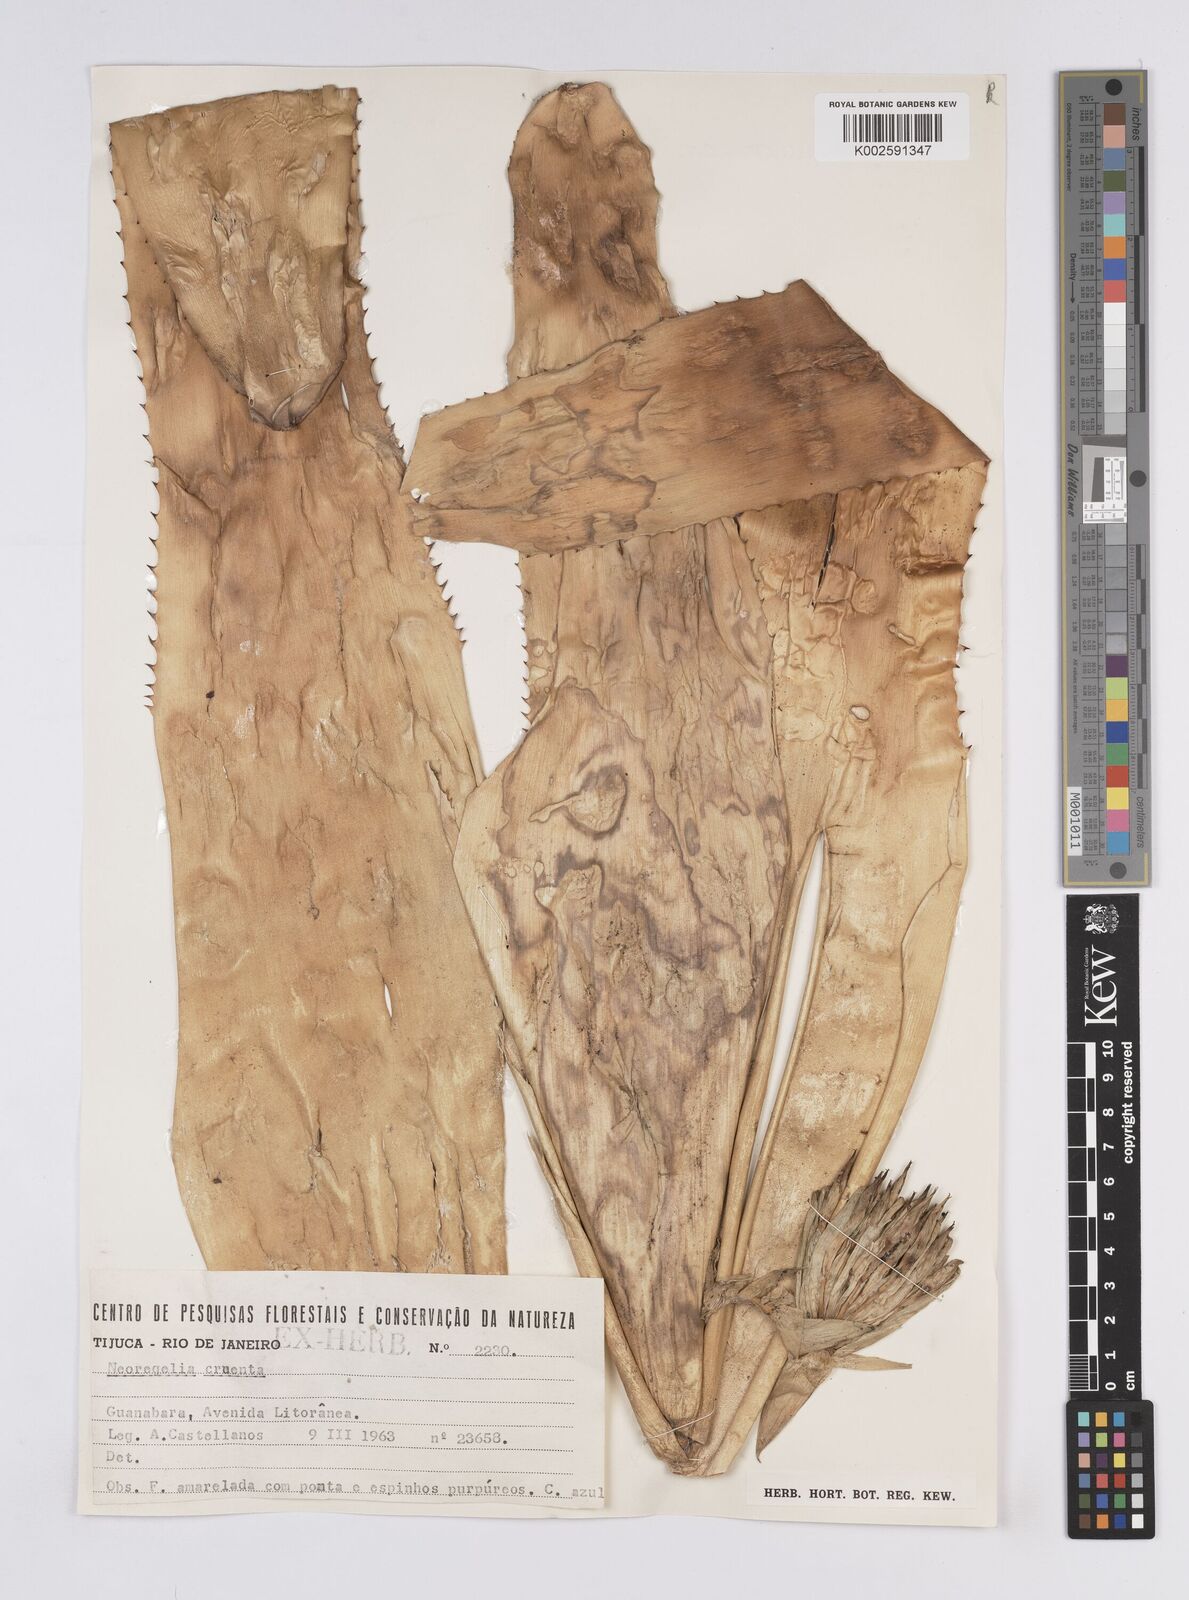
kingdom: Plantae
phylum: Tracheophyta
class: Liliopsida
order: Poales
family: Bromeliaceae
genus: Neoregelia
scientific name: Neoregelia cruenta
